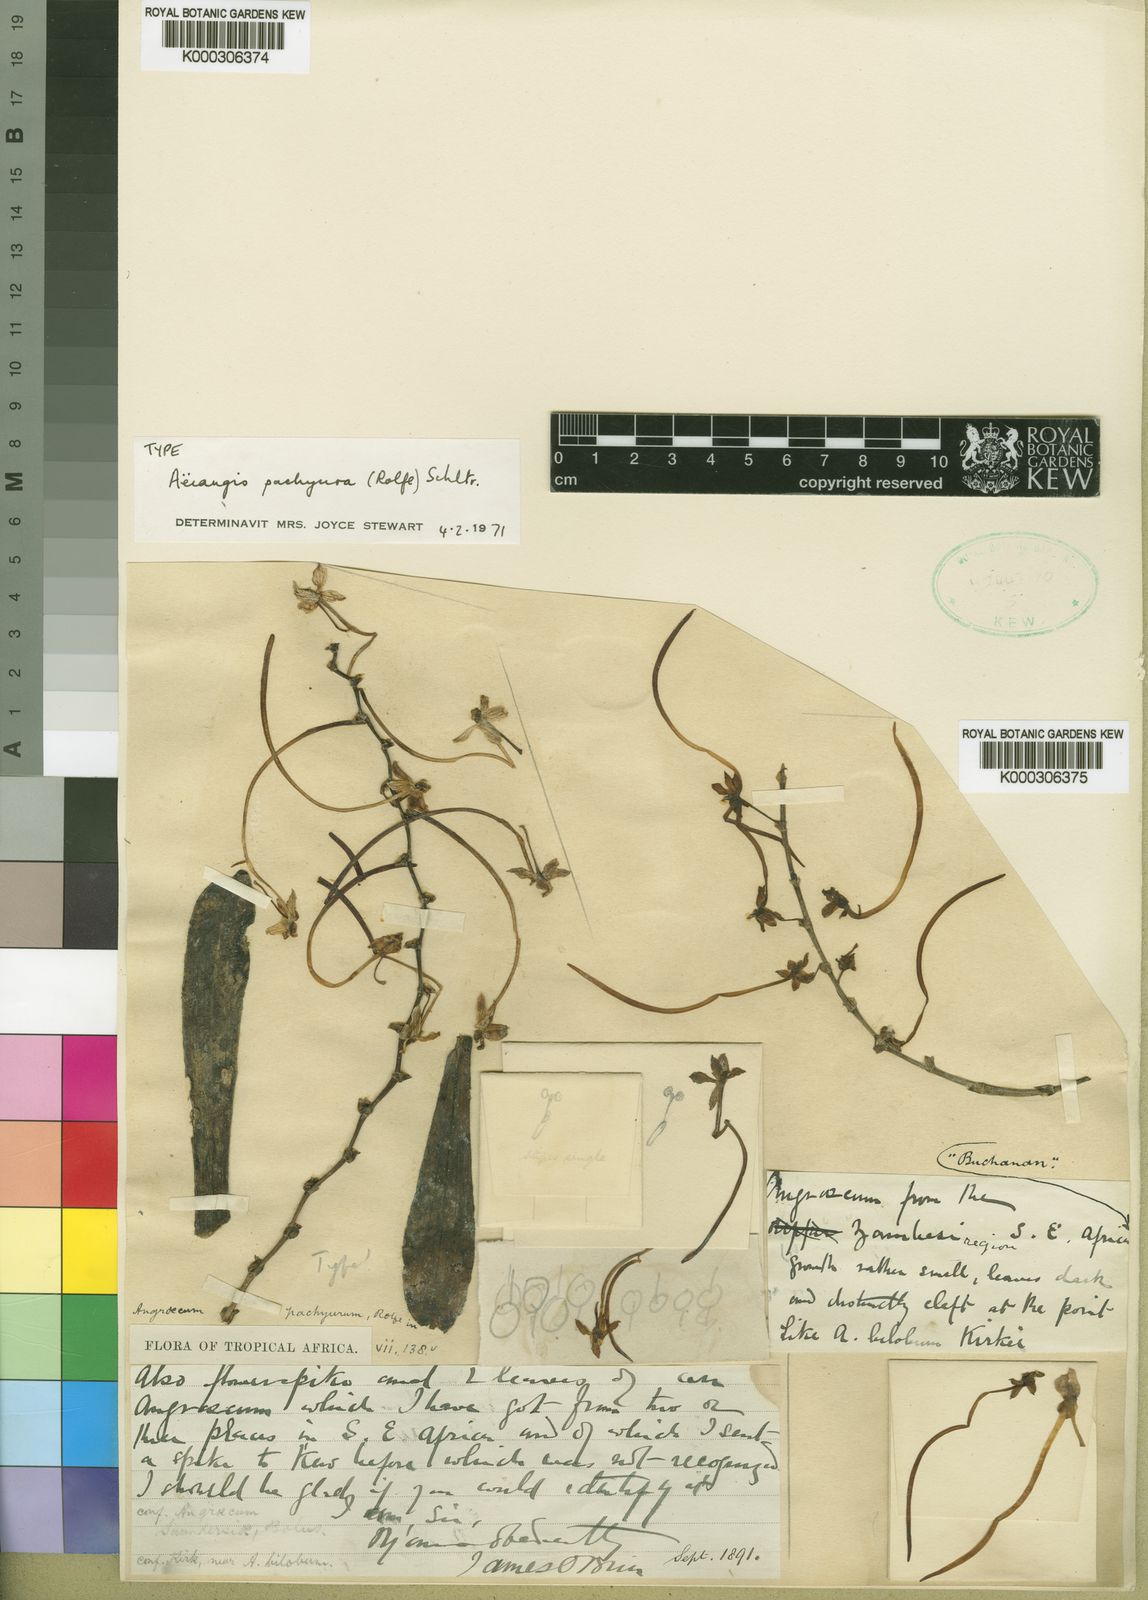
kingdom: Plantae
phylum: Tracheophyta
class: Liliopsida
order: Asparagales
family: Orchidaceae
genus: Aerangis
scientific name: Aerangis mystacidii
